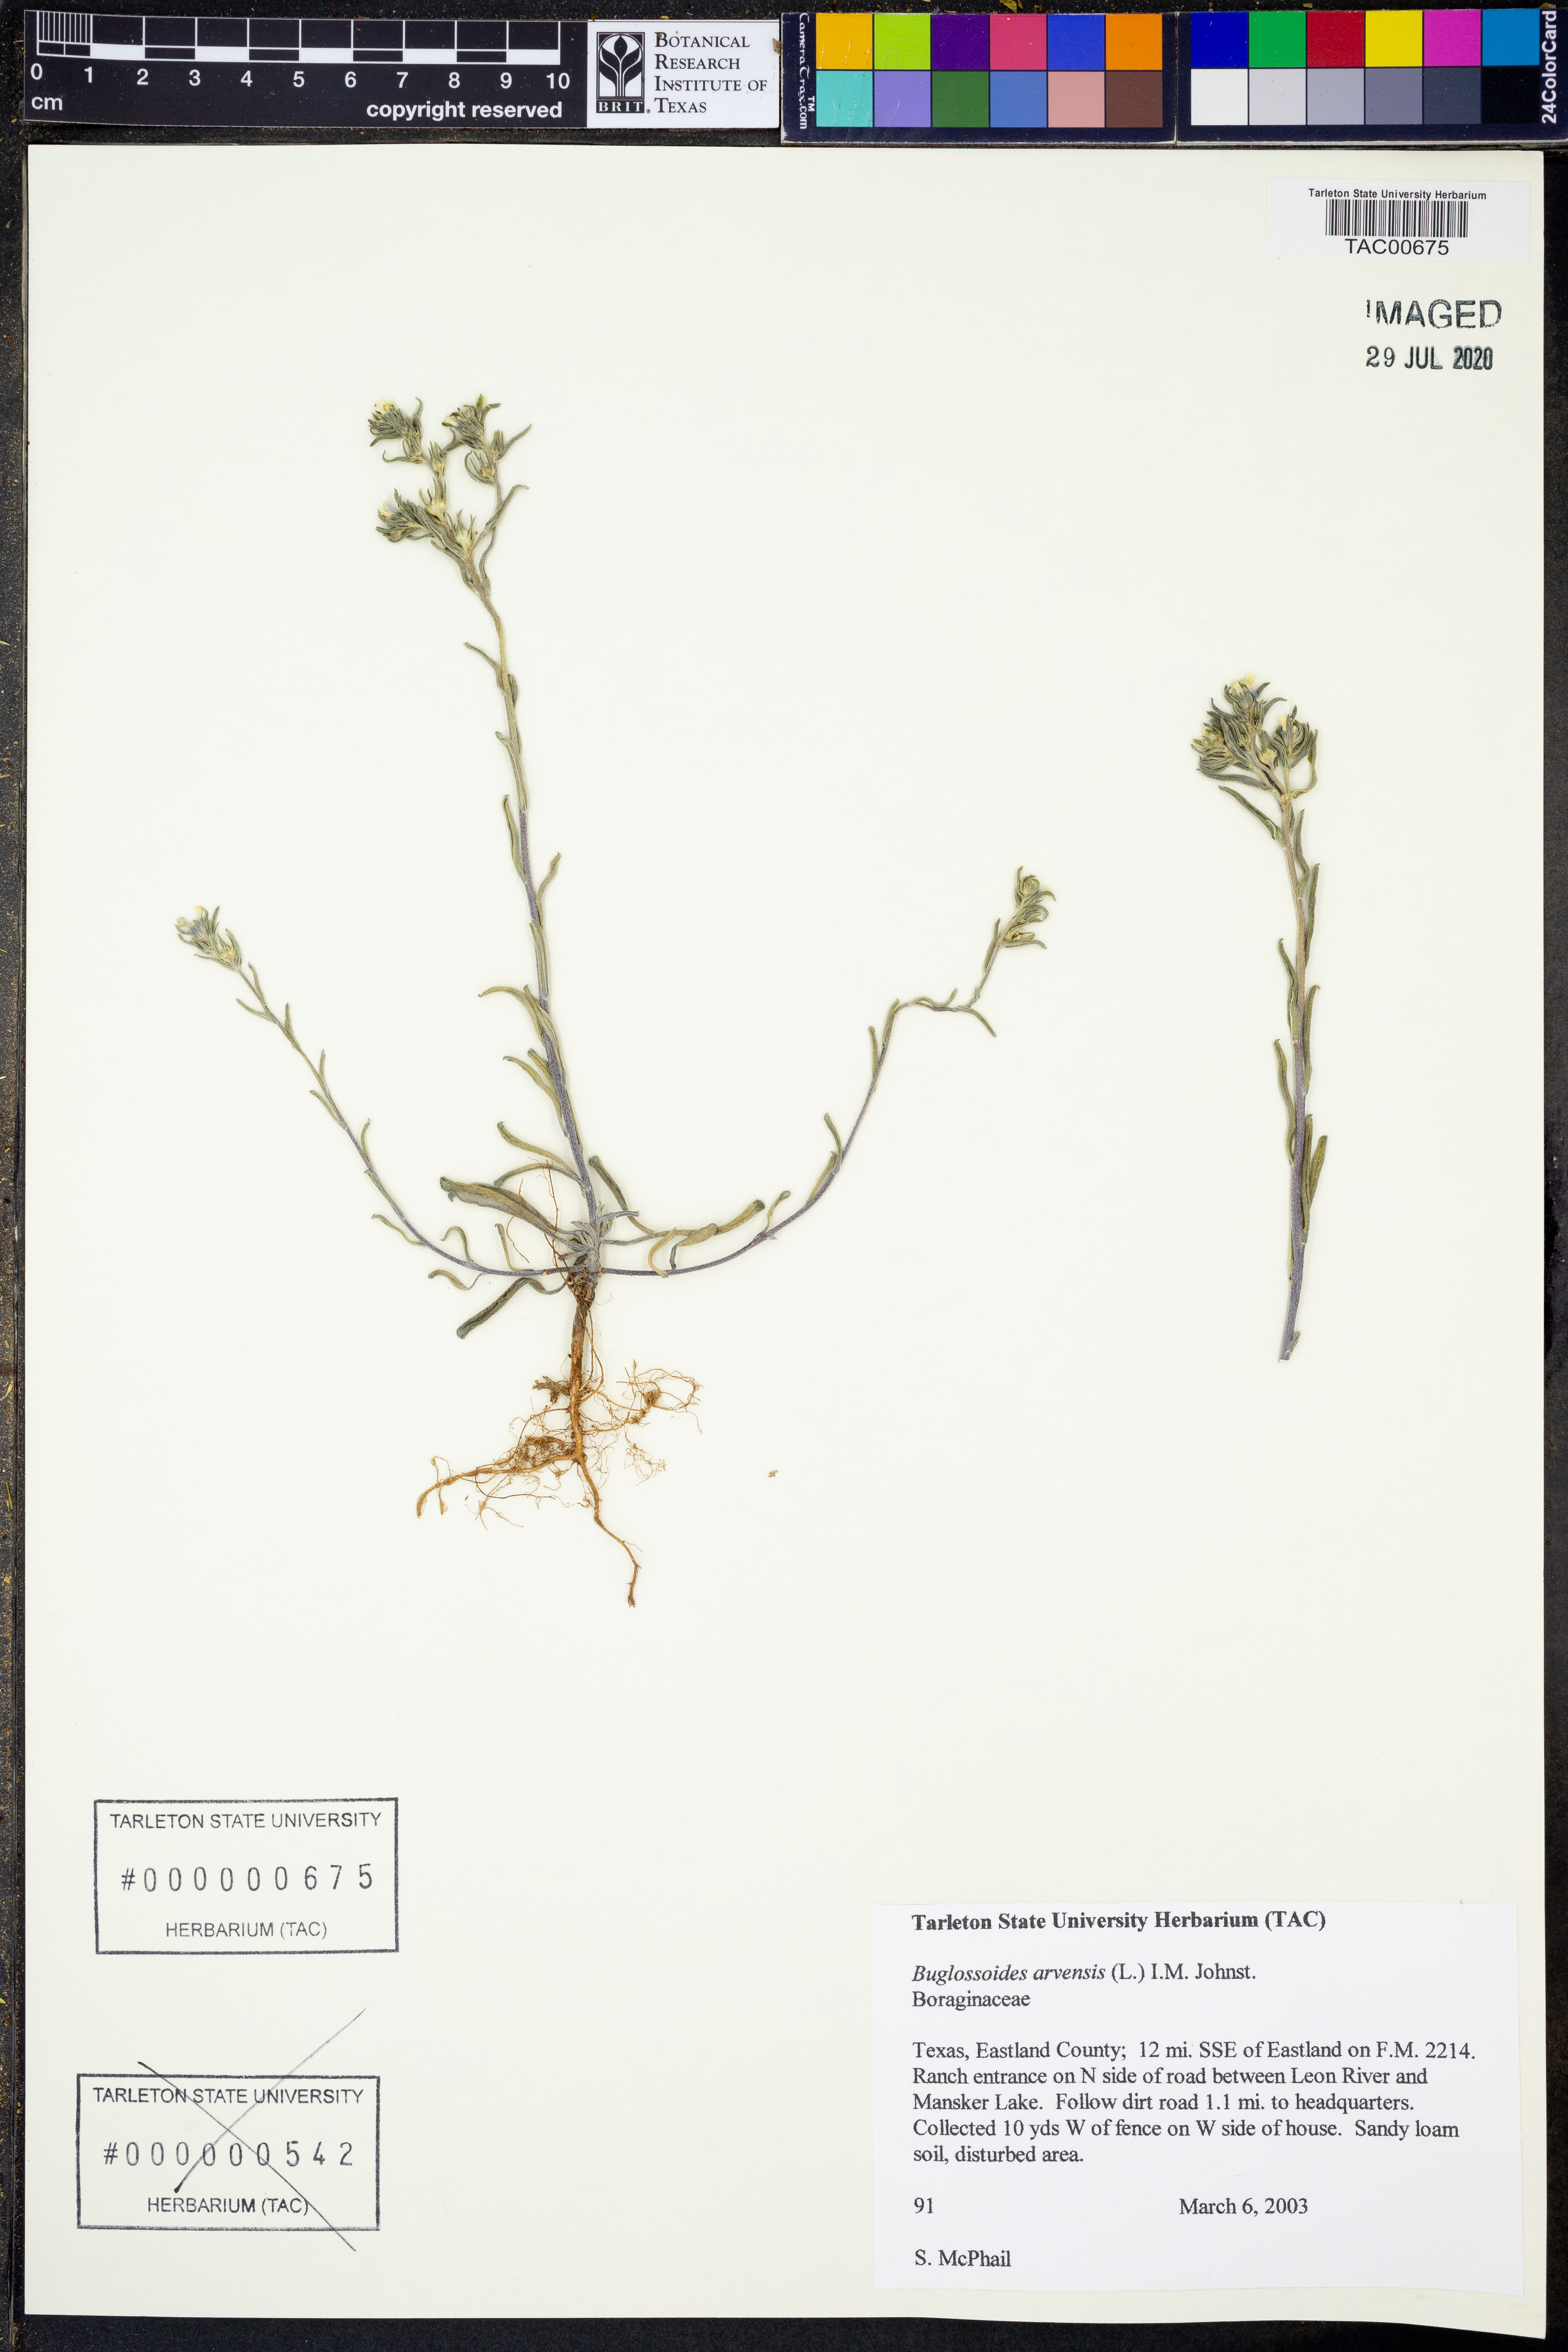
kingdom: Plantae
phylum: Tracheophyta
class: Magnoliopsida
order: Boraginales
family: Boraginaceae
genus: Buglossoides
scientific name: Buglossoides arvensis
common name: Corn gromwell
